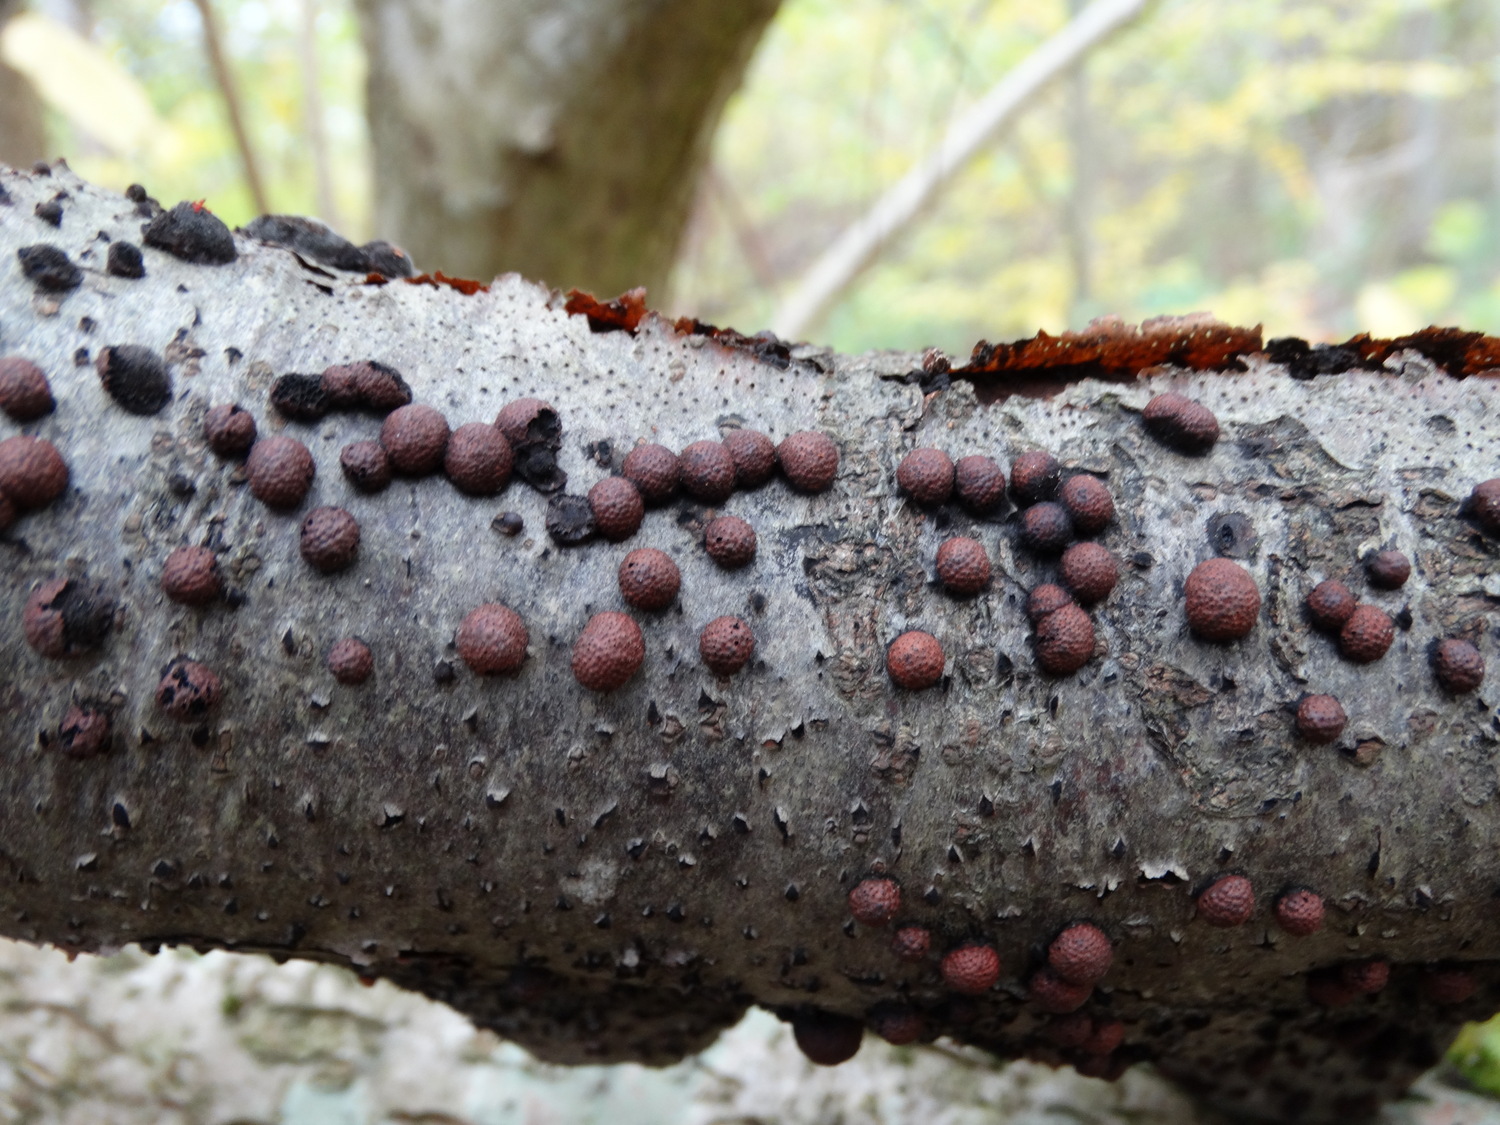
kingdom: Fungi
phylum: Ascomycota
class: Sordariomycetes
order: Xylariales
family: Hypoxylaceae
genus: Hypoxylon
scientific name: Hypoxylon fragiforme
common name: kuljordbær
